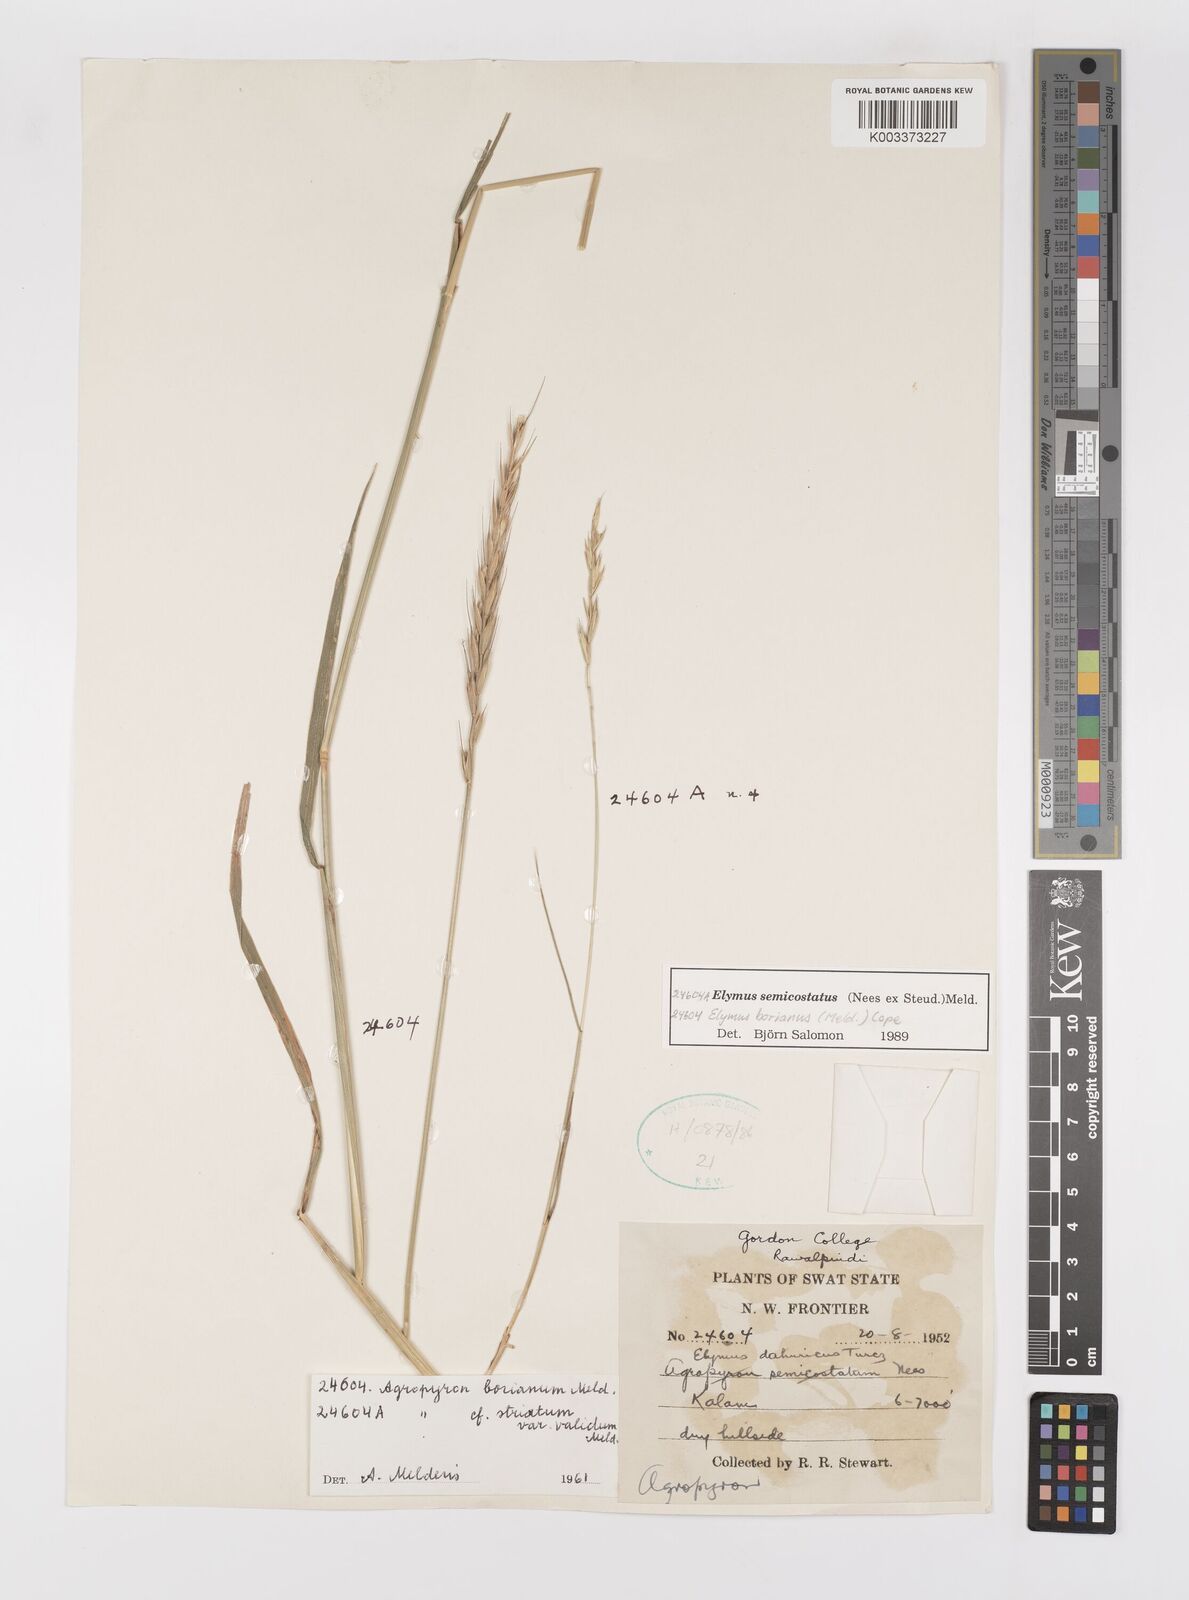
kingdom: Plantae
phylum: Tracheophyta
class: Liliopsida
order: Poales
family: Poaceae
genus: Elymus
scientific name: Elymus borianus
